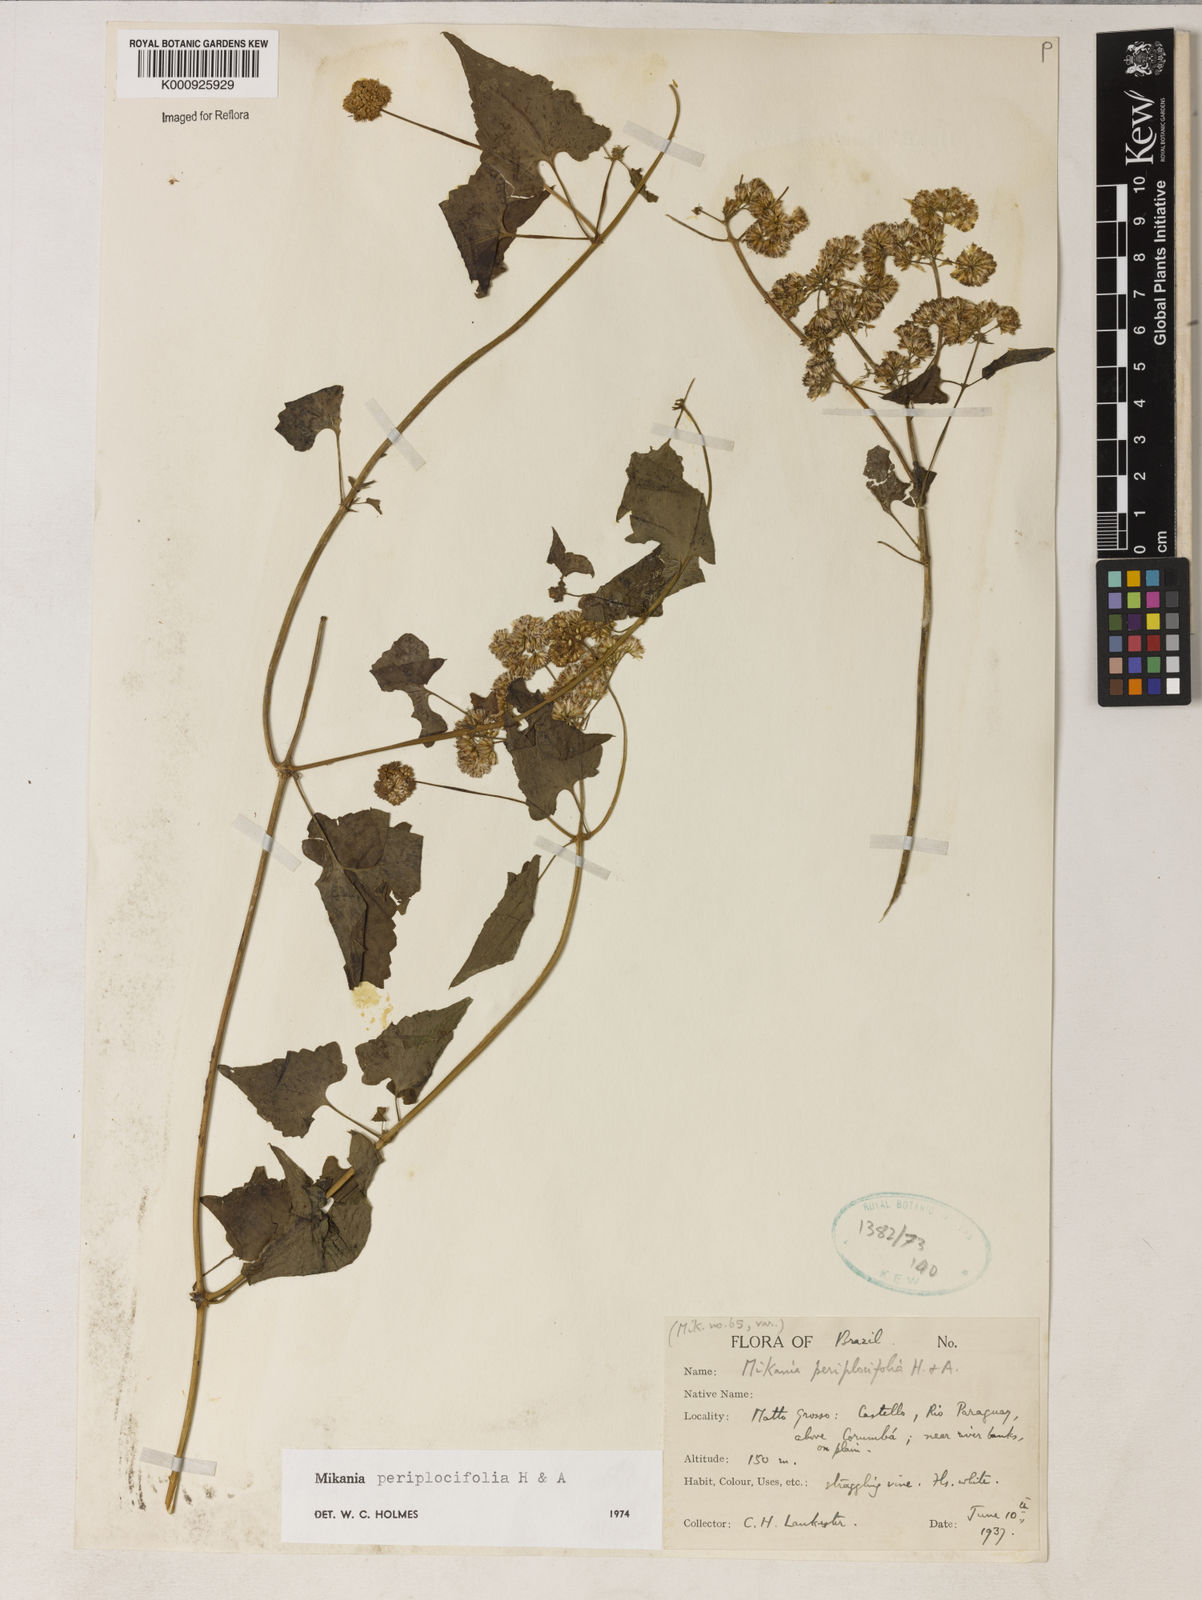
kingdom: Plantae
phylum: Tracheophyta
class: Magnoliopsida
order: Asterales
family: Asteraceae
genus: Mikania
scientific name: Mikania periplocifolia
